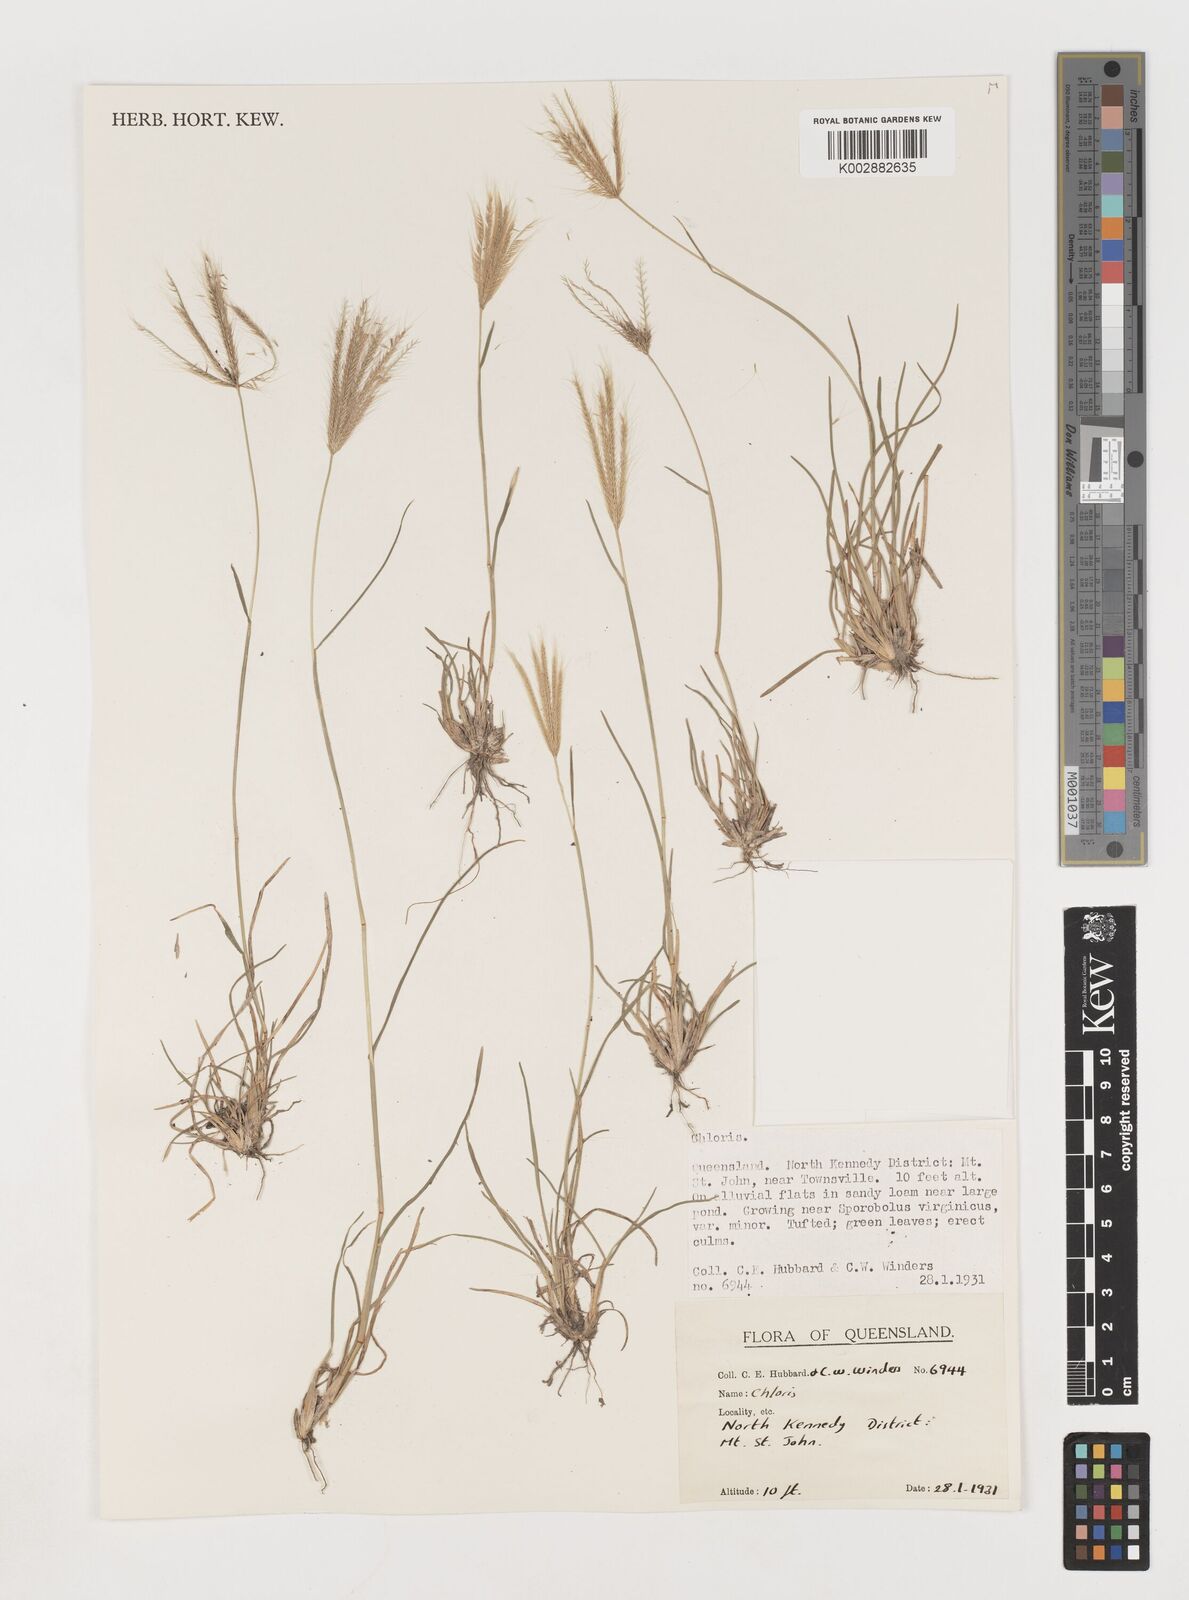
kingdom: Plantae
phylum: Tracheophyta
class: Liliopsida
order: Poales
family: Poaceae
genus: Chloris
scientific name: Chloris pumilio
